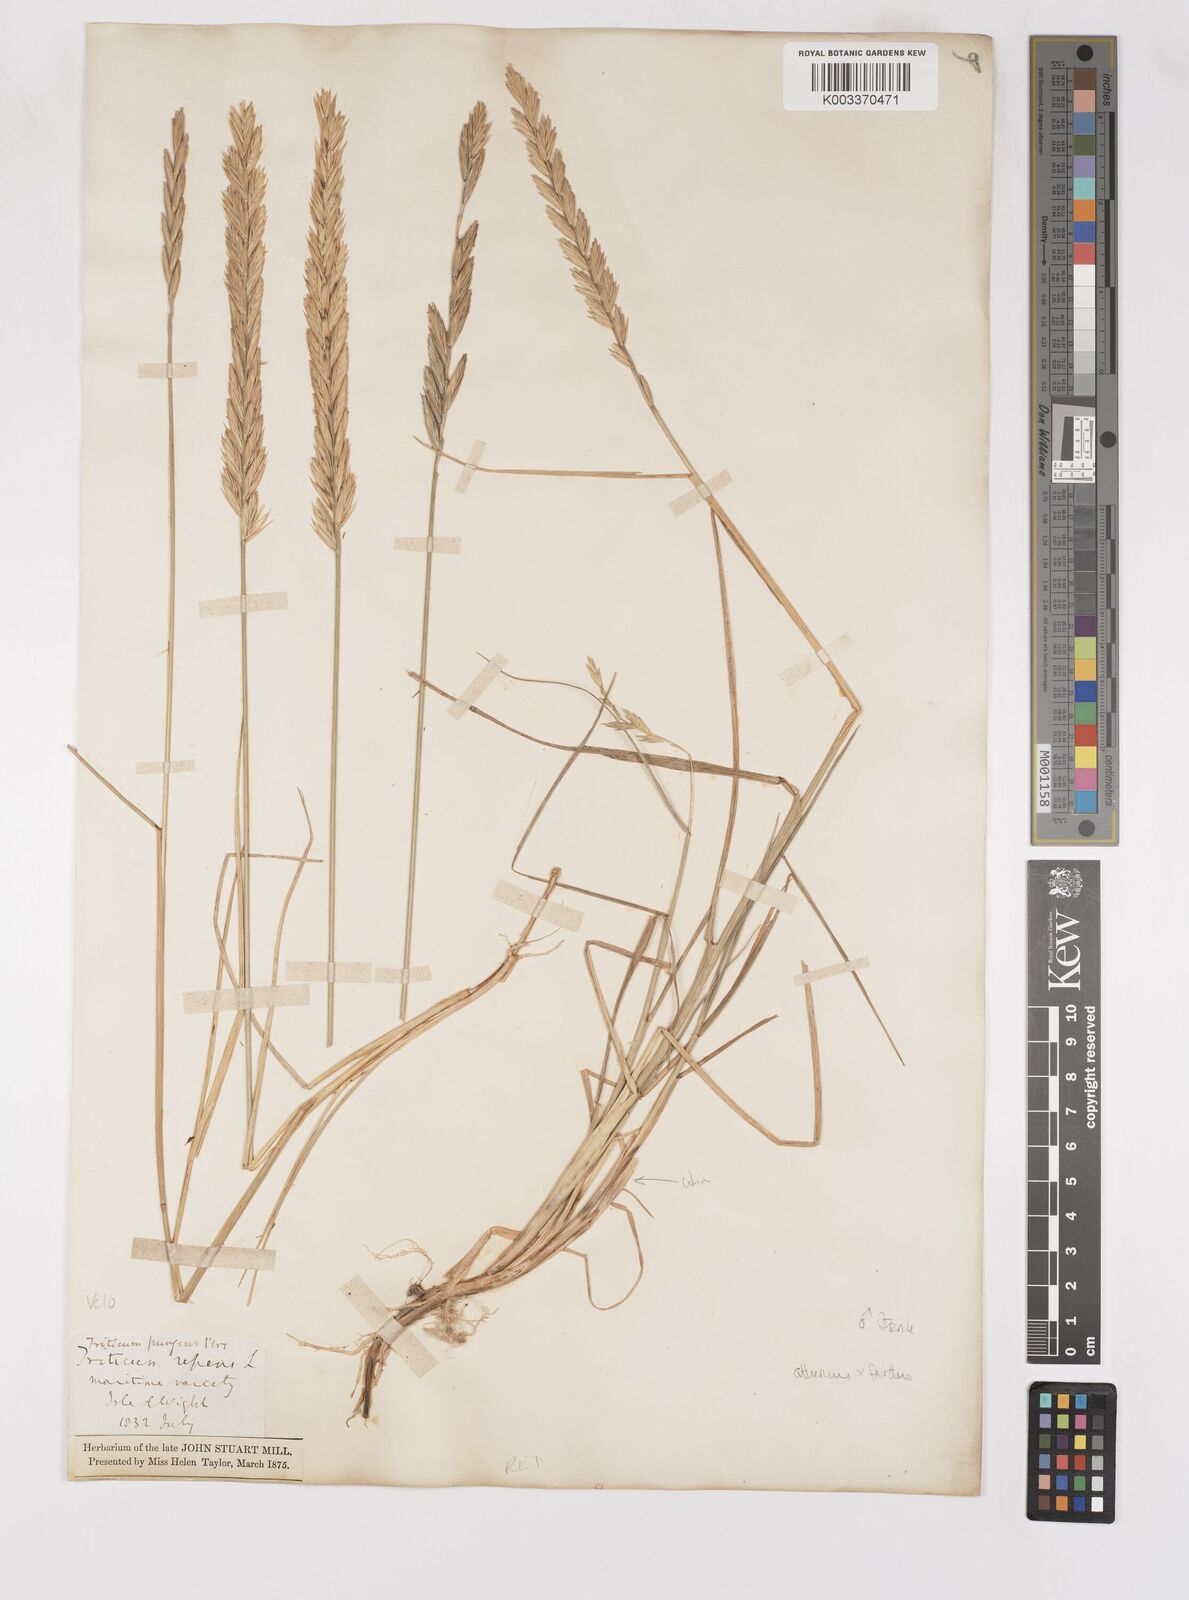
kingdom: Plantae
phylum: Tracheophyta
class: Liliopsida
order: Poales
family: Poaceae
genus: Thinoelymus
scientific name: Thinoelymus obtusiusculus
